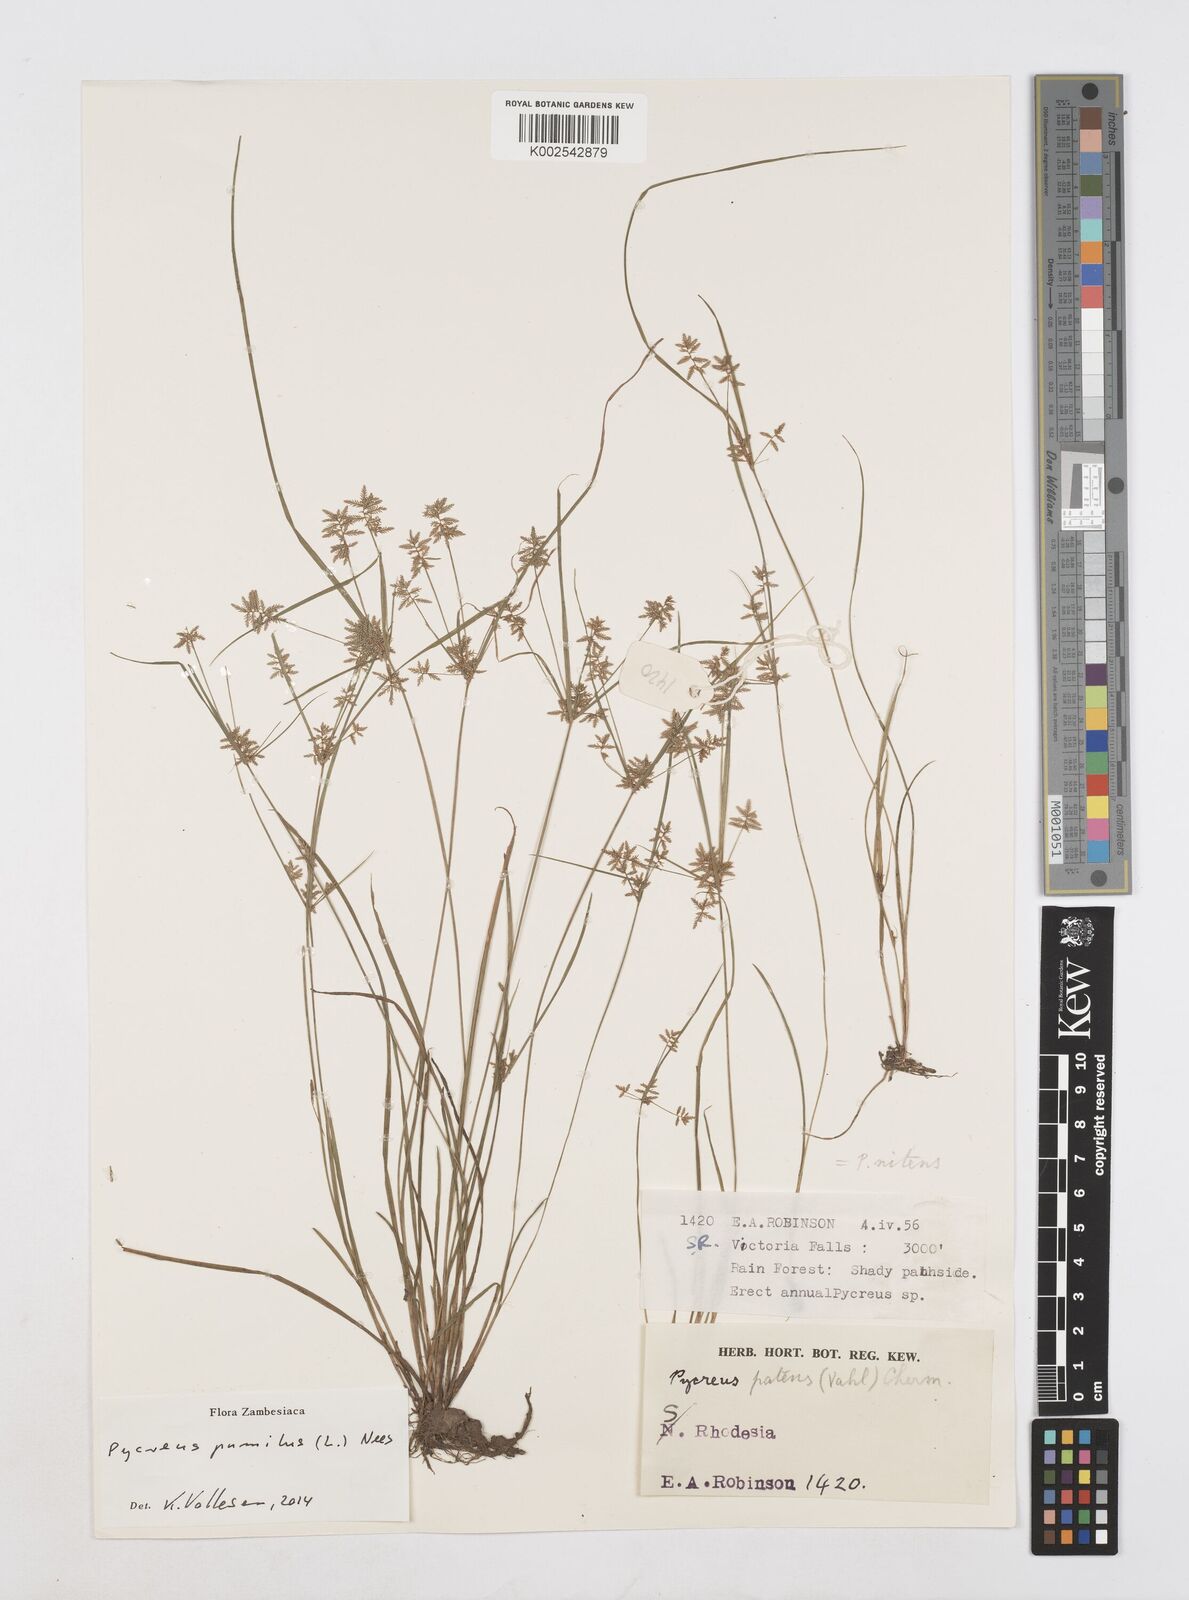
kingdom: Plantae
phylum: Tracheophyta
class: Liliopsida
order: Poales
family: Cyperaceae
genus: Cyperus
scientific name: Cyperus pumilus
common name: Low flatsedge
